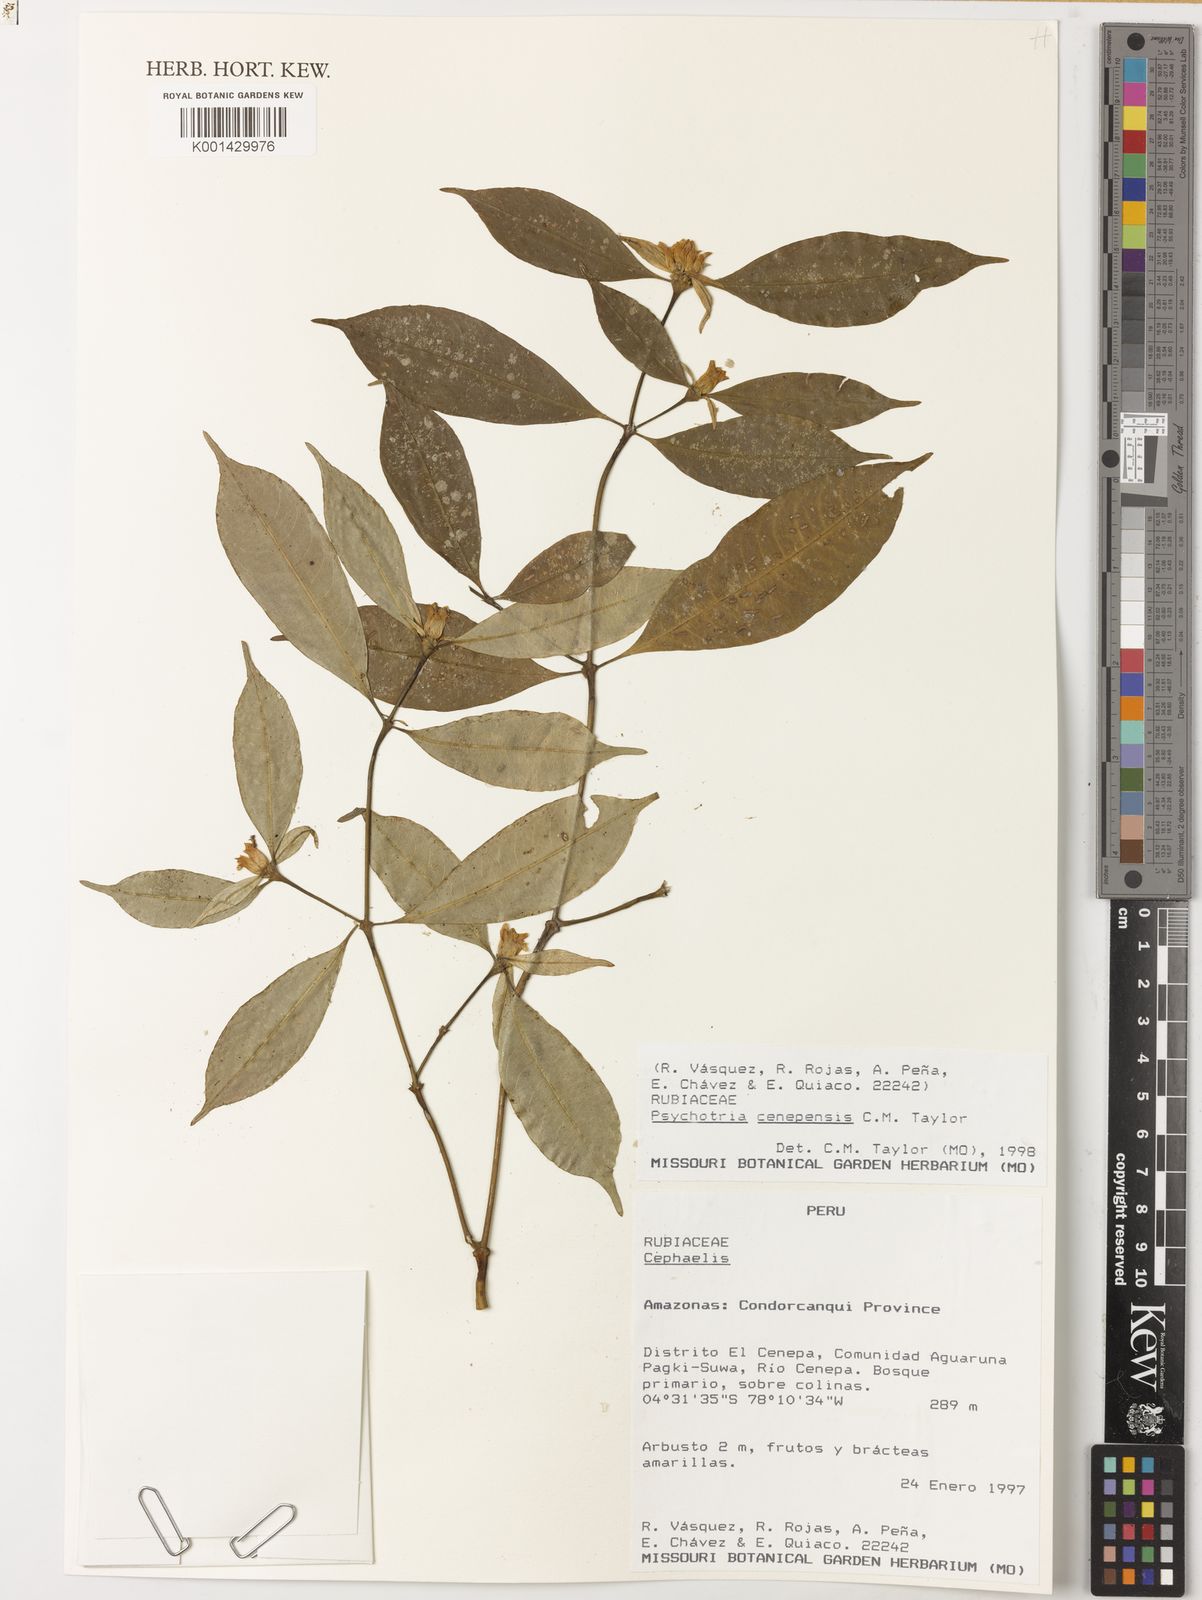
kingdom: Plantae
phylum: Tracheophyta
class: Magnoliopsida
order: Gentianales
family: Rubiaceae
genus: Palicourea
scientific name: Palicourea cenepensis
